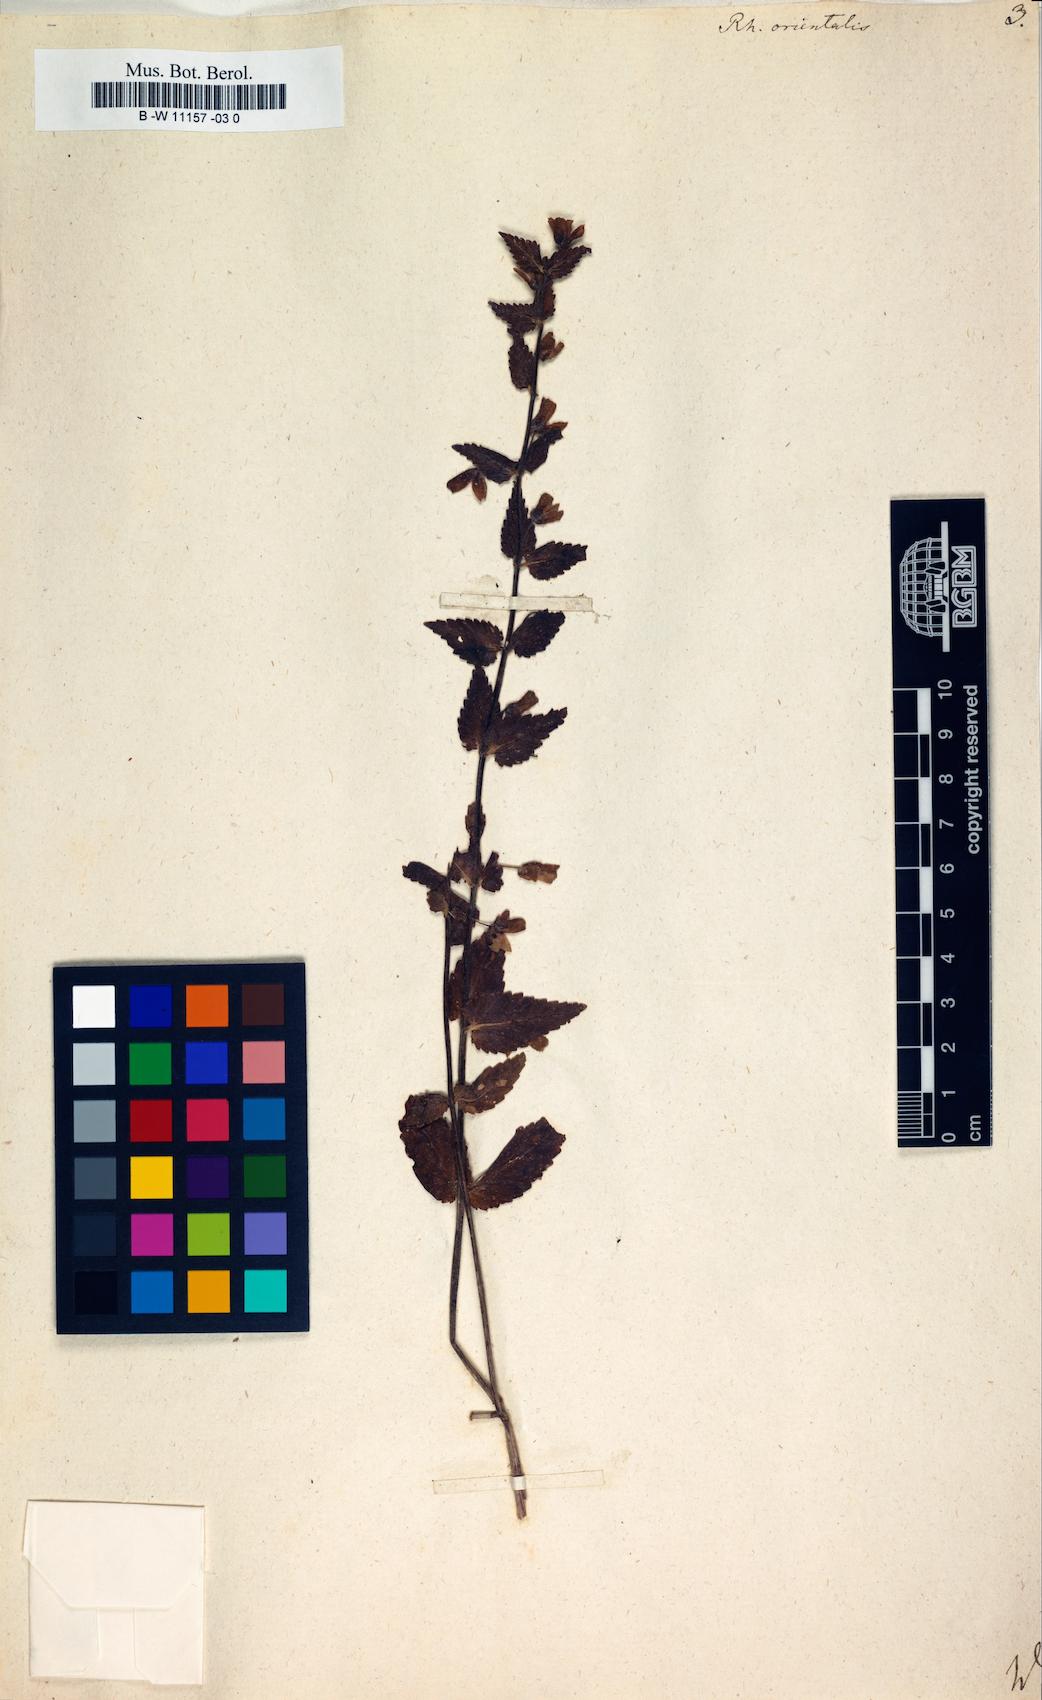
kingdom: Plantae
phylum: Tracheophyta
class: Magnoliopsida
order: Lamiales
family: Orobanchaceae
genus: Rhynchocorys
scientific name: Rhynchocorys
